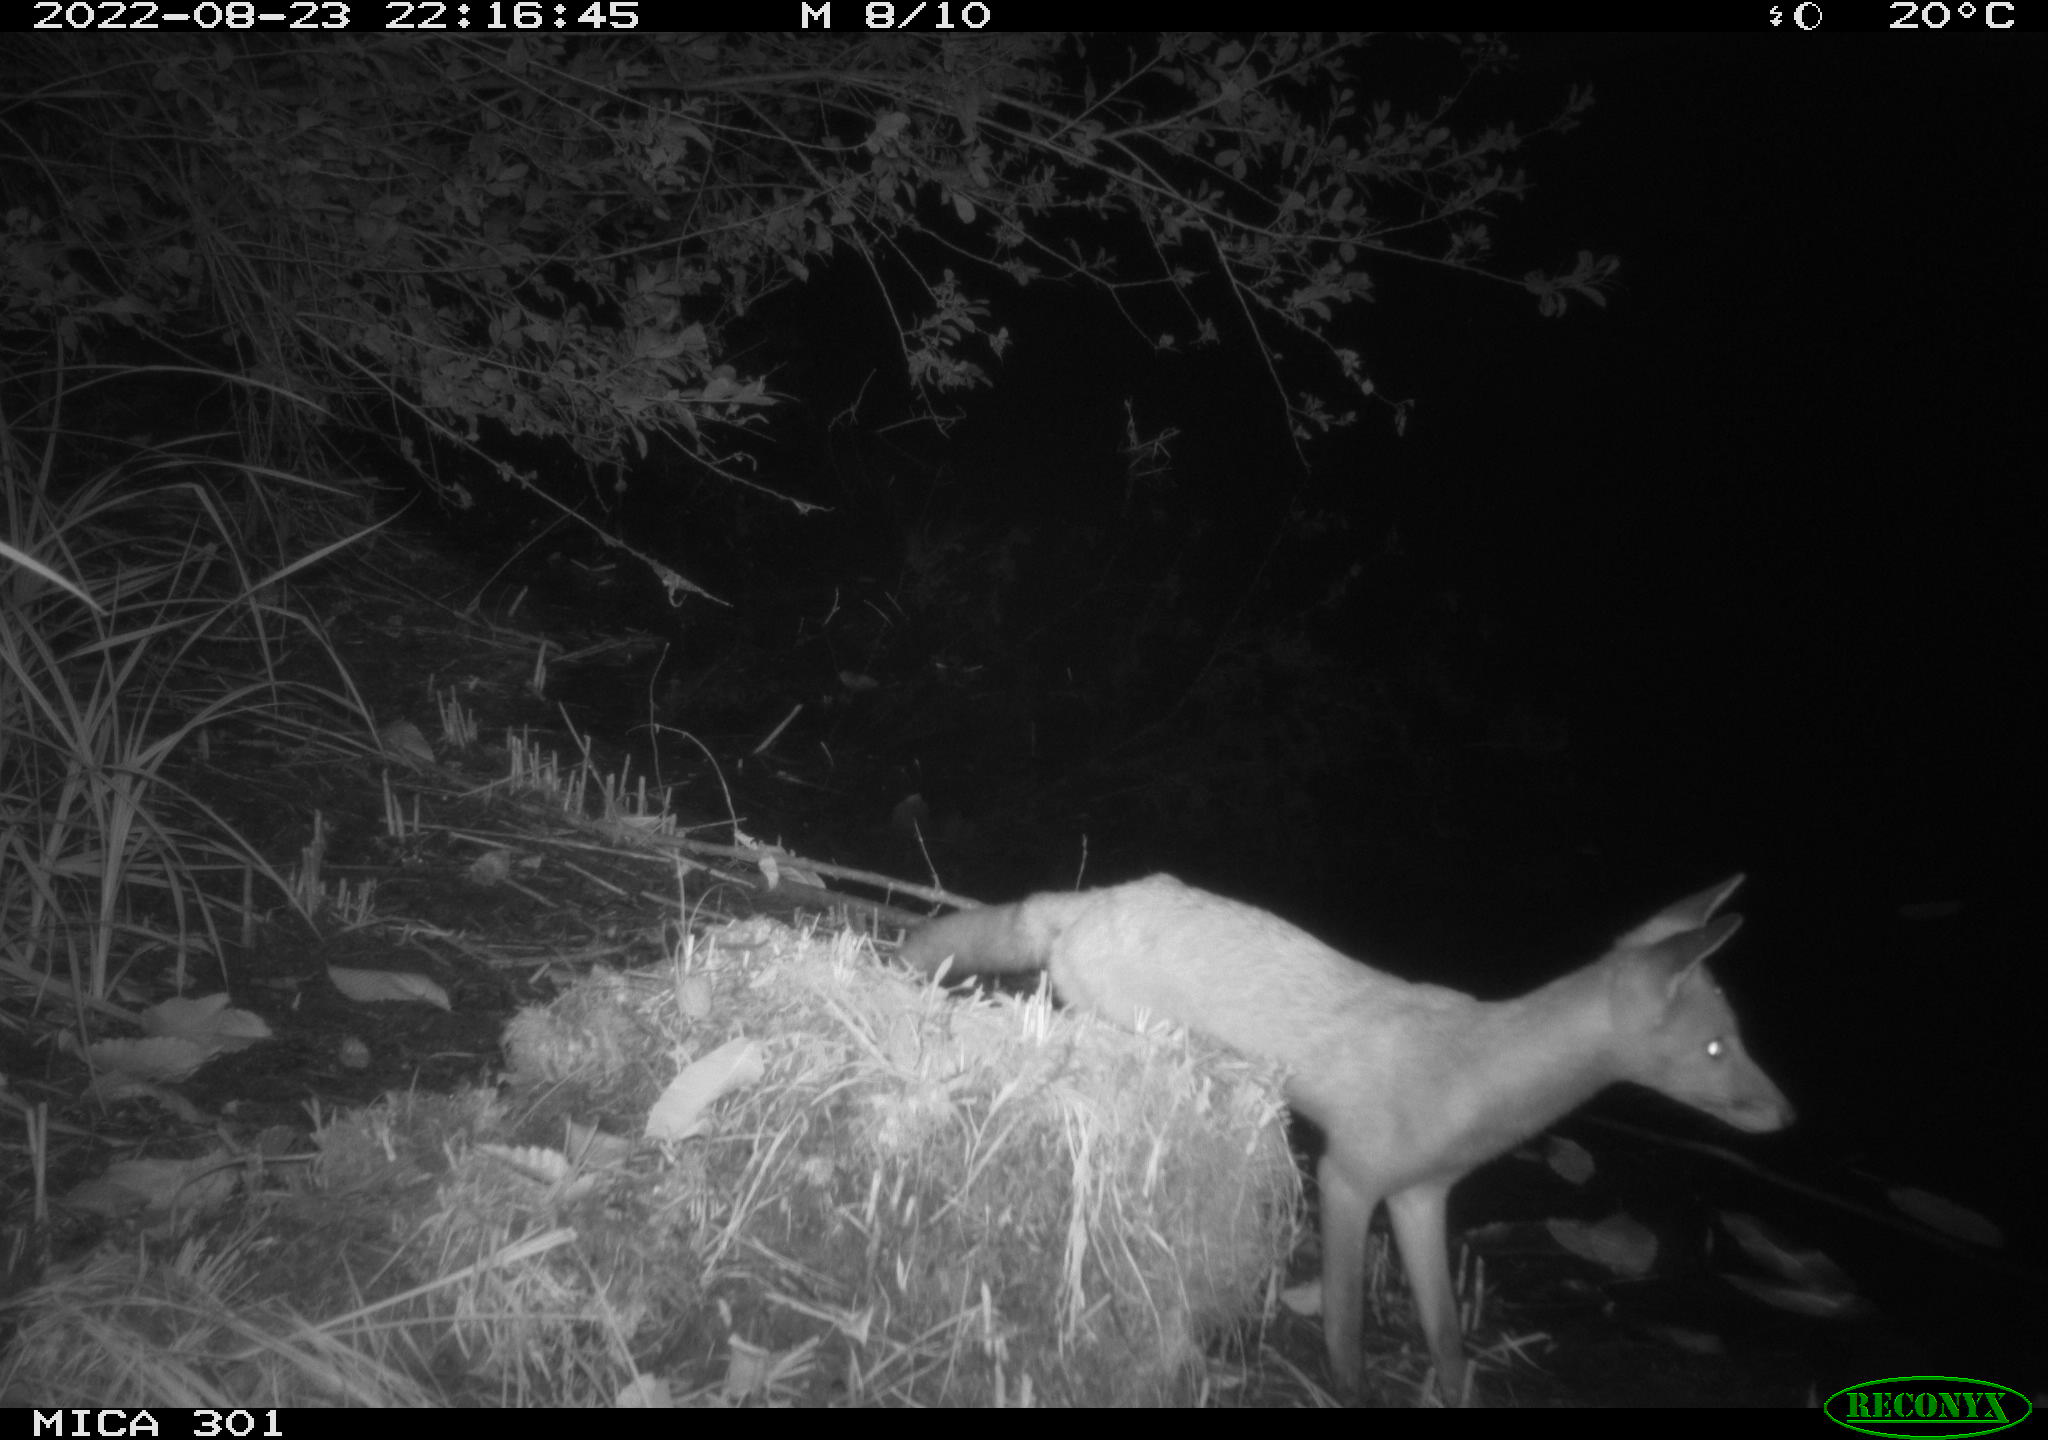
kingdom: Animalia
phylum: Chordata
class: Mammalia
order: Carnivora
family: Canidae
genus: Vulpes
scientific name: Vulpes vulpes
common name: Red fox
